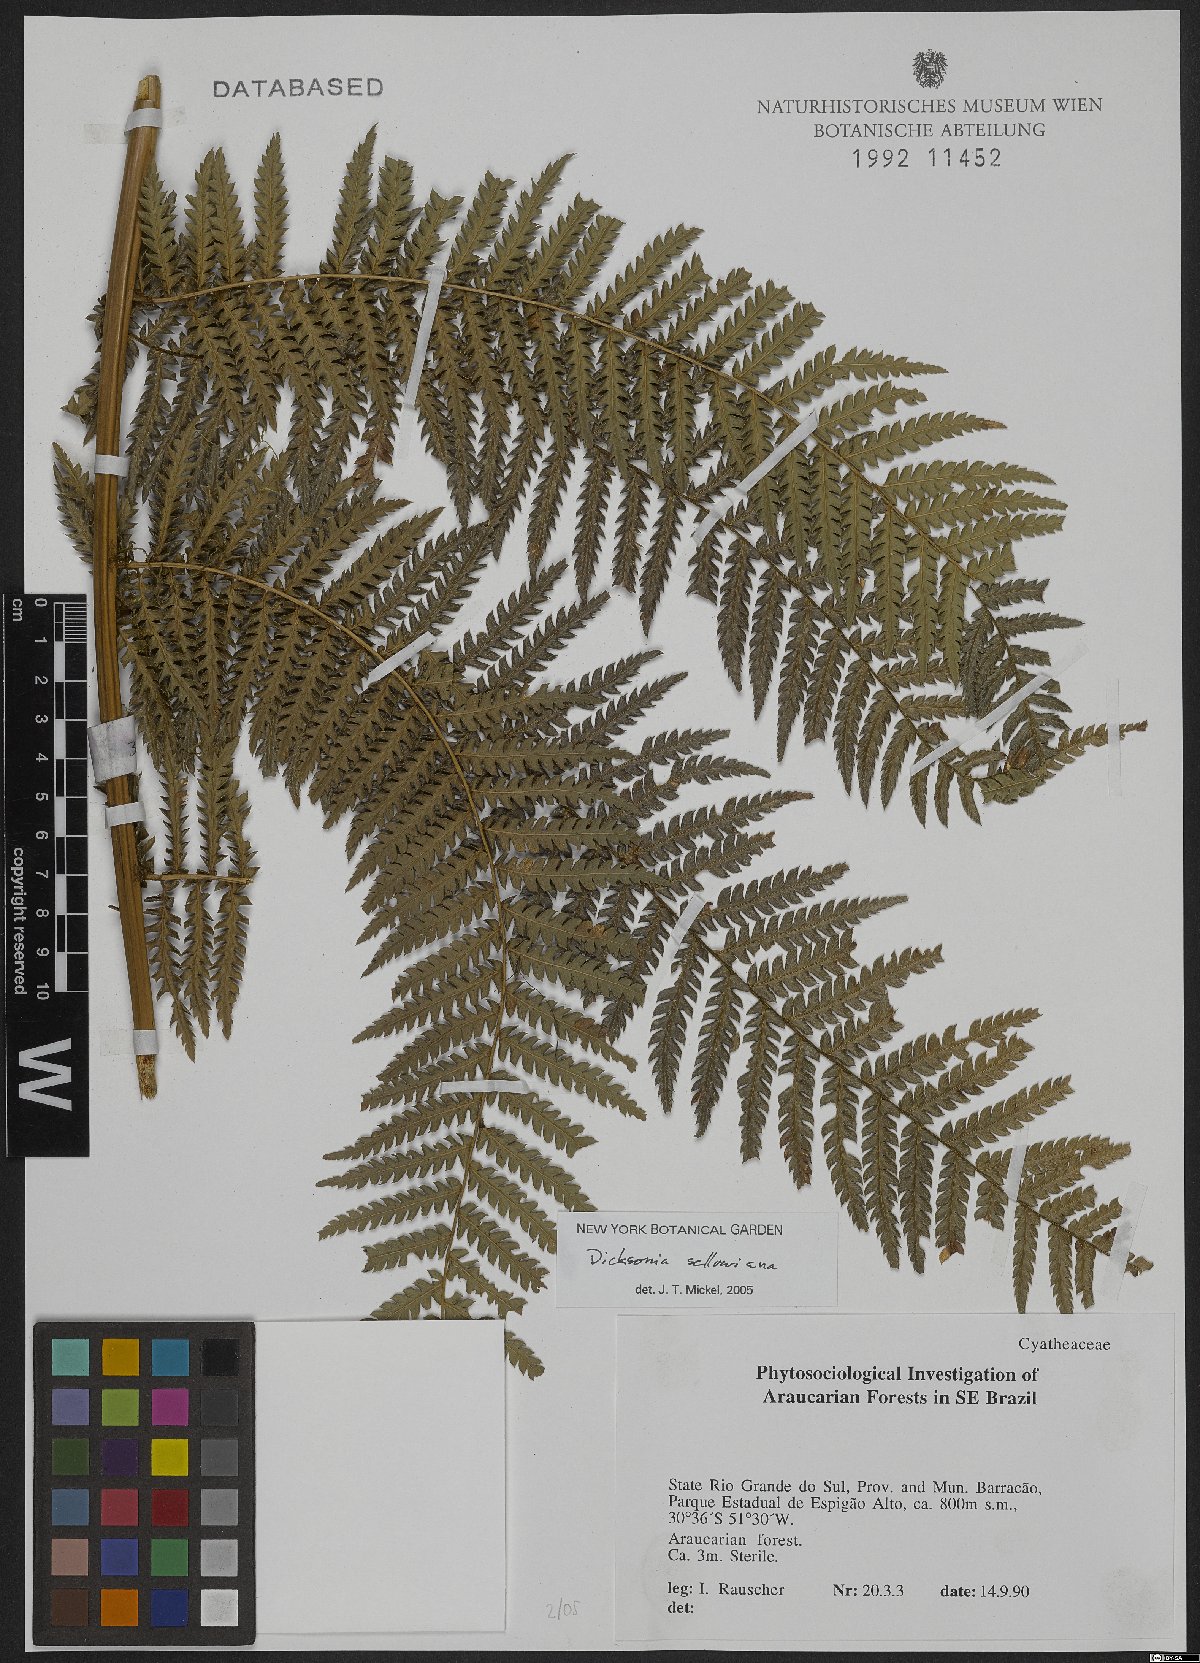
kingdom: Plantae
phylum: Tracheophyta
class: Polypodiopsida
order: Cyatheales
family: Dicksoniaceae
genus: Dicksonia
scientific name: Dicksonia sellowiana
